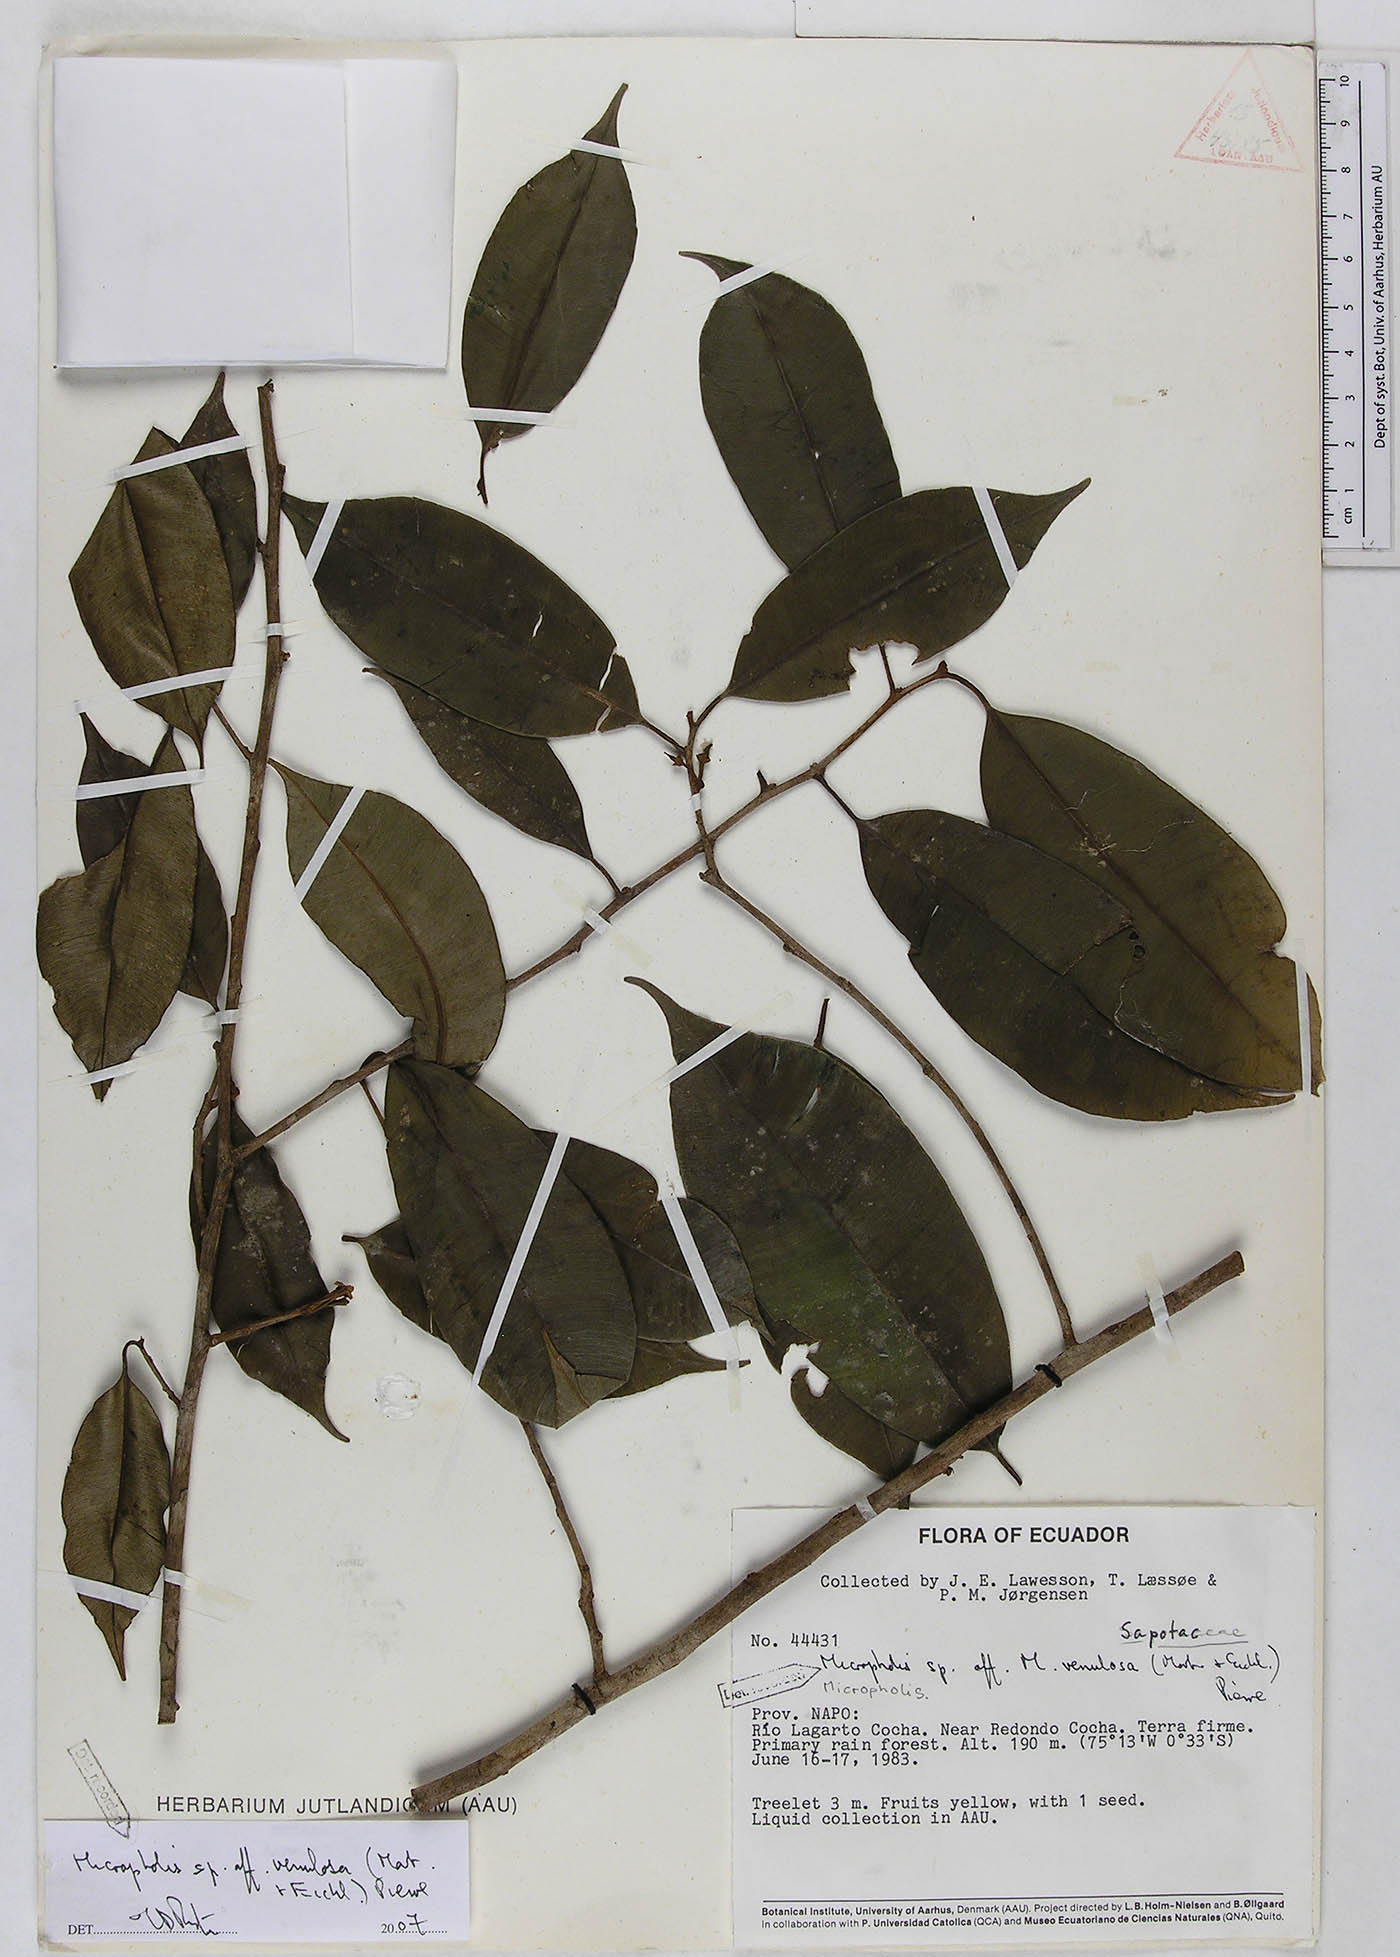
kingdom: Plantae
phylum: Tracheophyta
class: Magnoliopsida
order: Ericales
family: Sapotaceae
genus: Micropholis
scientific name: Micropholis venulosa
